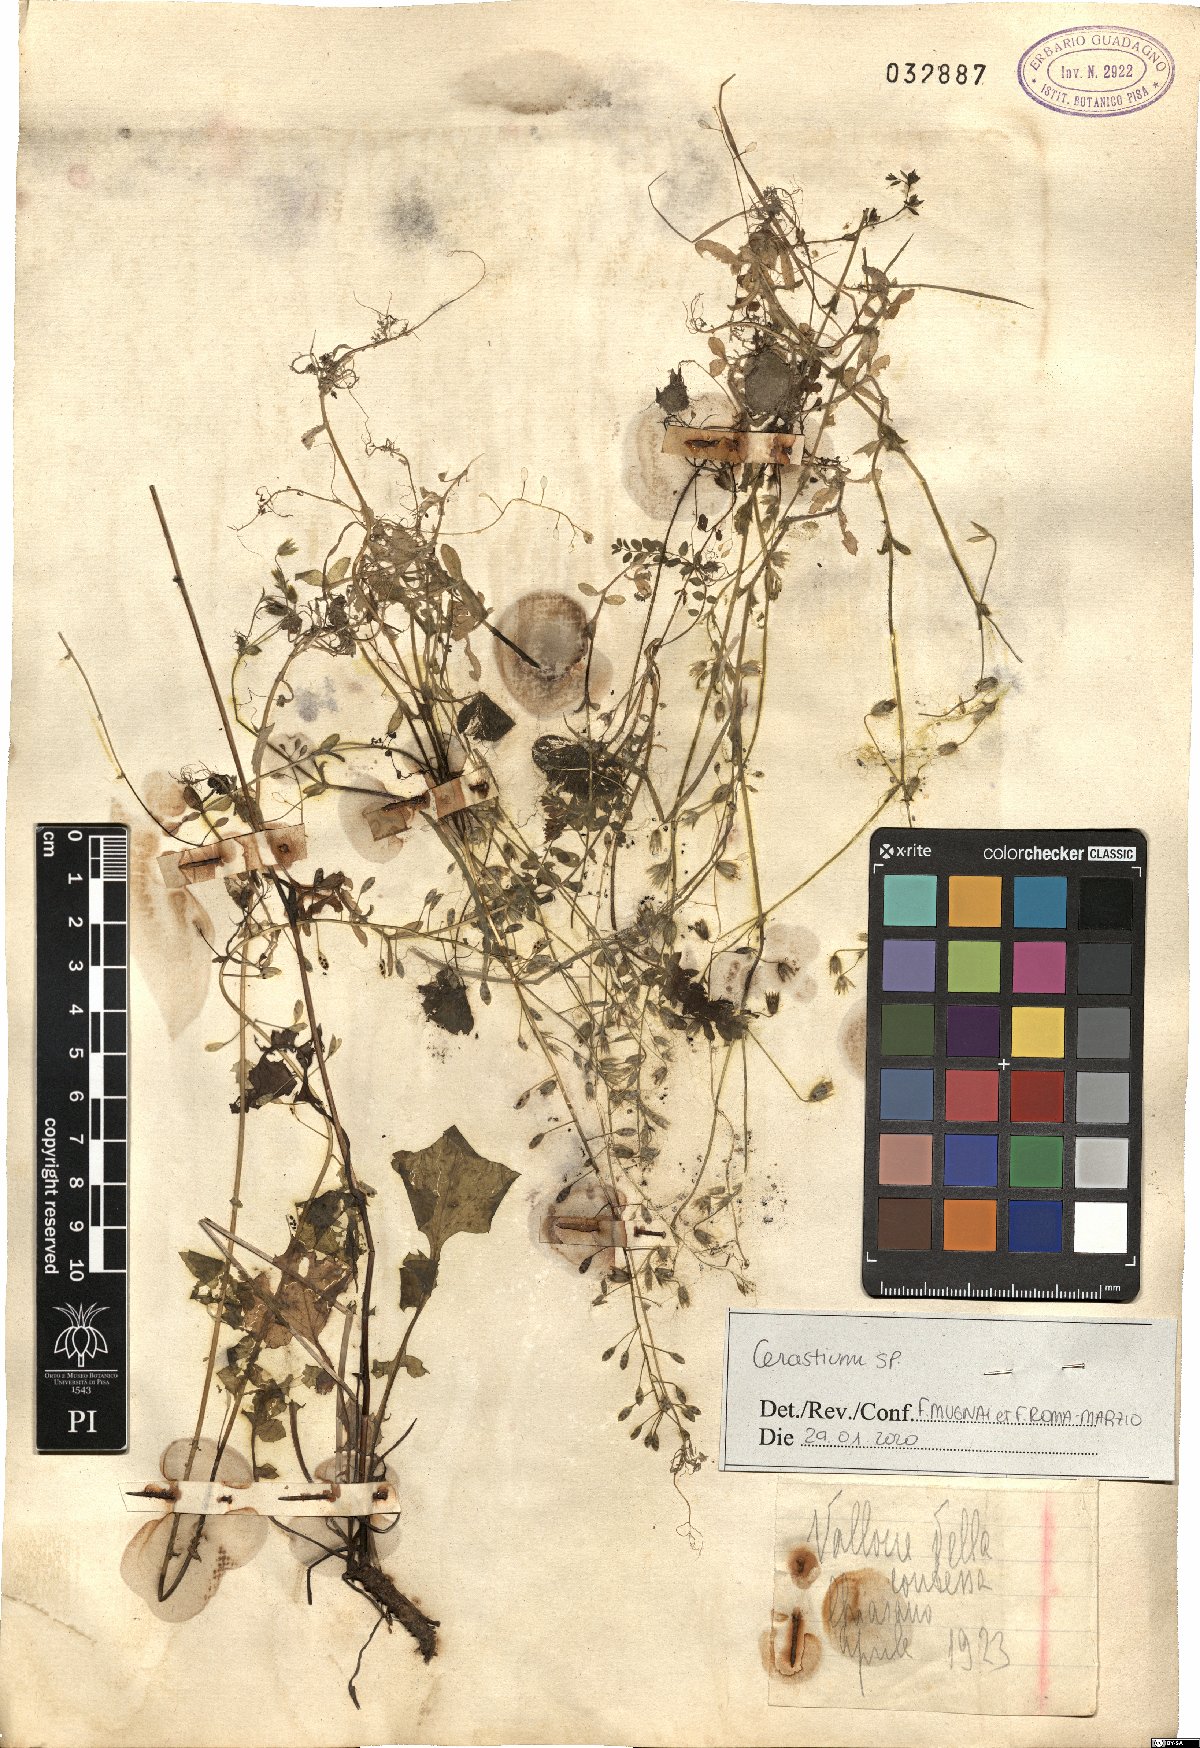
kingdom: Plantae
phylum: Tracheophyta
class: Magnoliopsida
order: Caryophyllales
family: Caryophyllaceae
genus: Cerastium
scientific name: Cerastium
